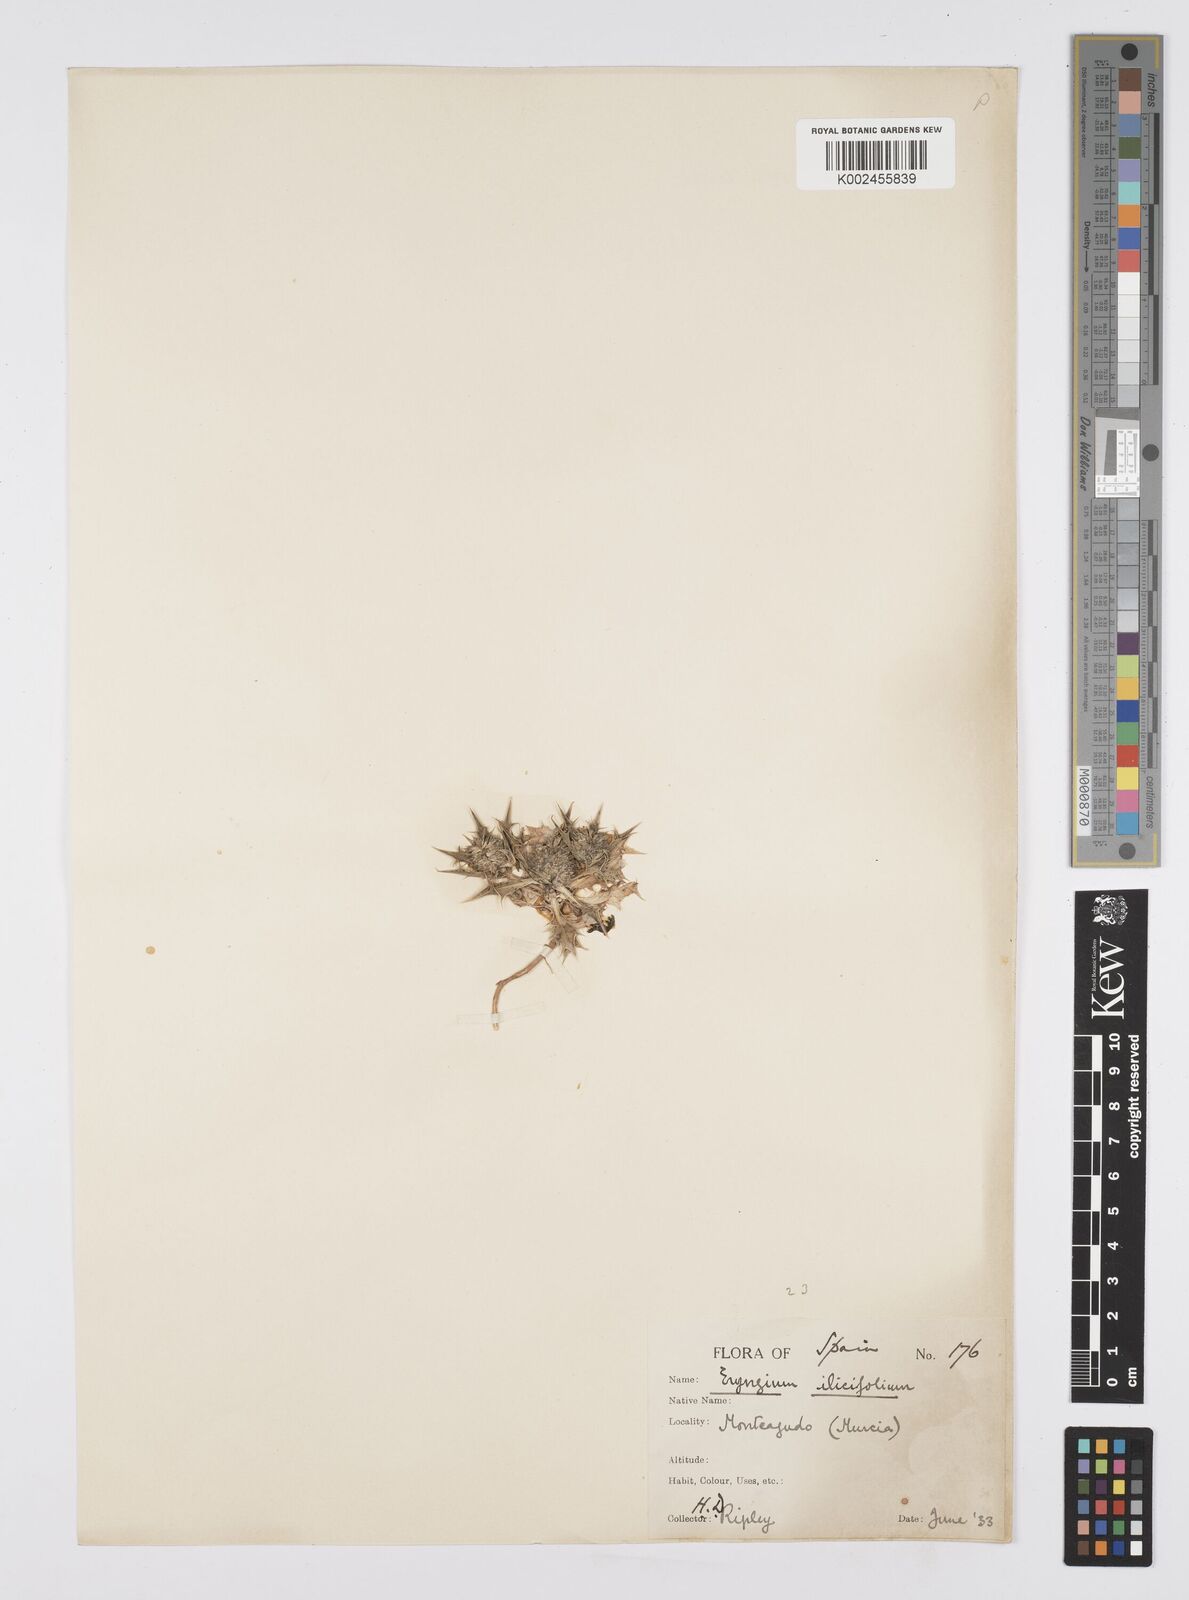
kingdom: Plantae
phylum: Tracheophyta
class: Magnoliopsida
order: Apiales
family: Apiaceae
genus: Eryngium
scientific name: Eryngium
